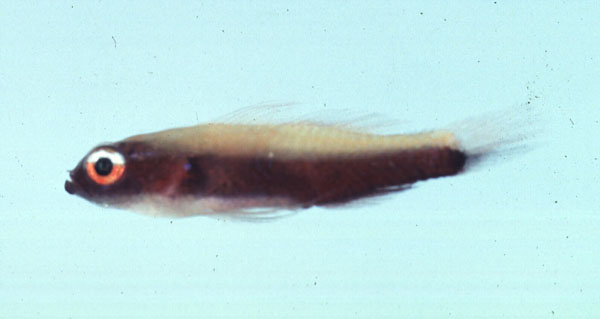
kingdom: Animalia
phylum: Chordata
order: Perciformes
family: Gobiidae
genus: Eviota
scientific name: Eviota nigriventris
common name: Blackbelly goby
